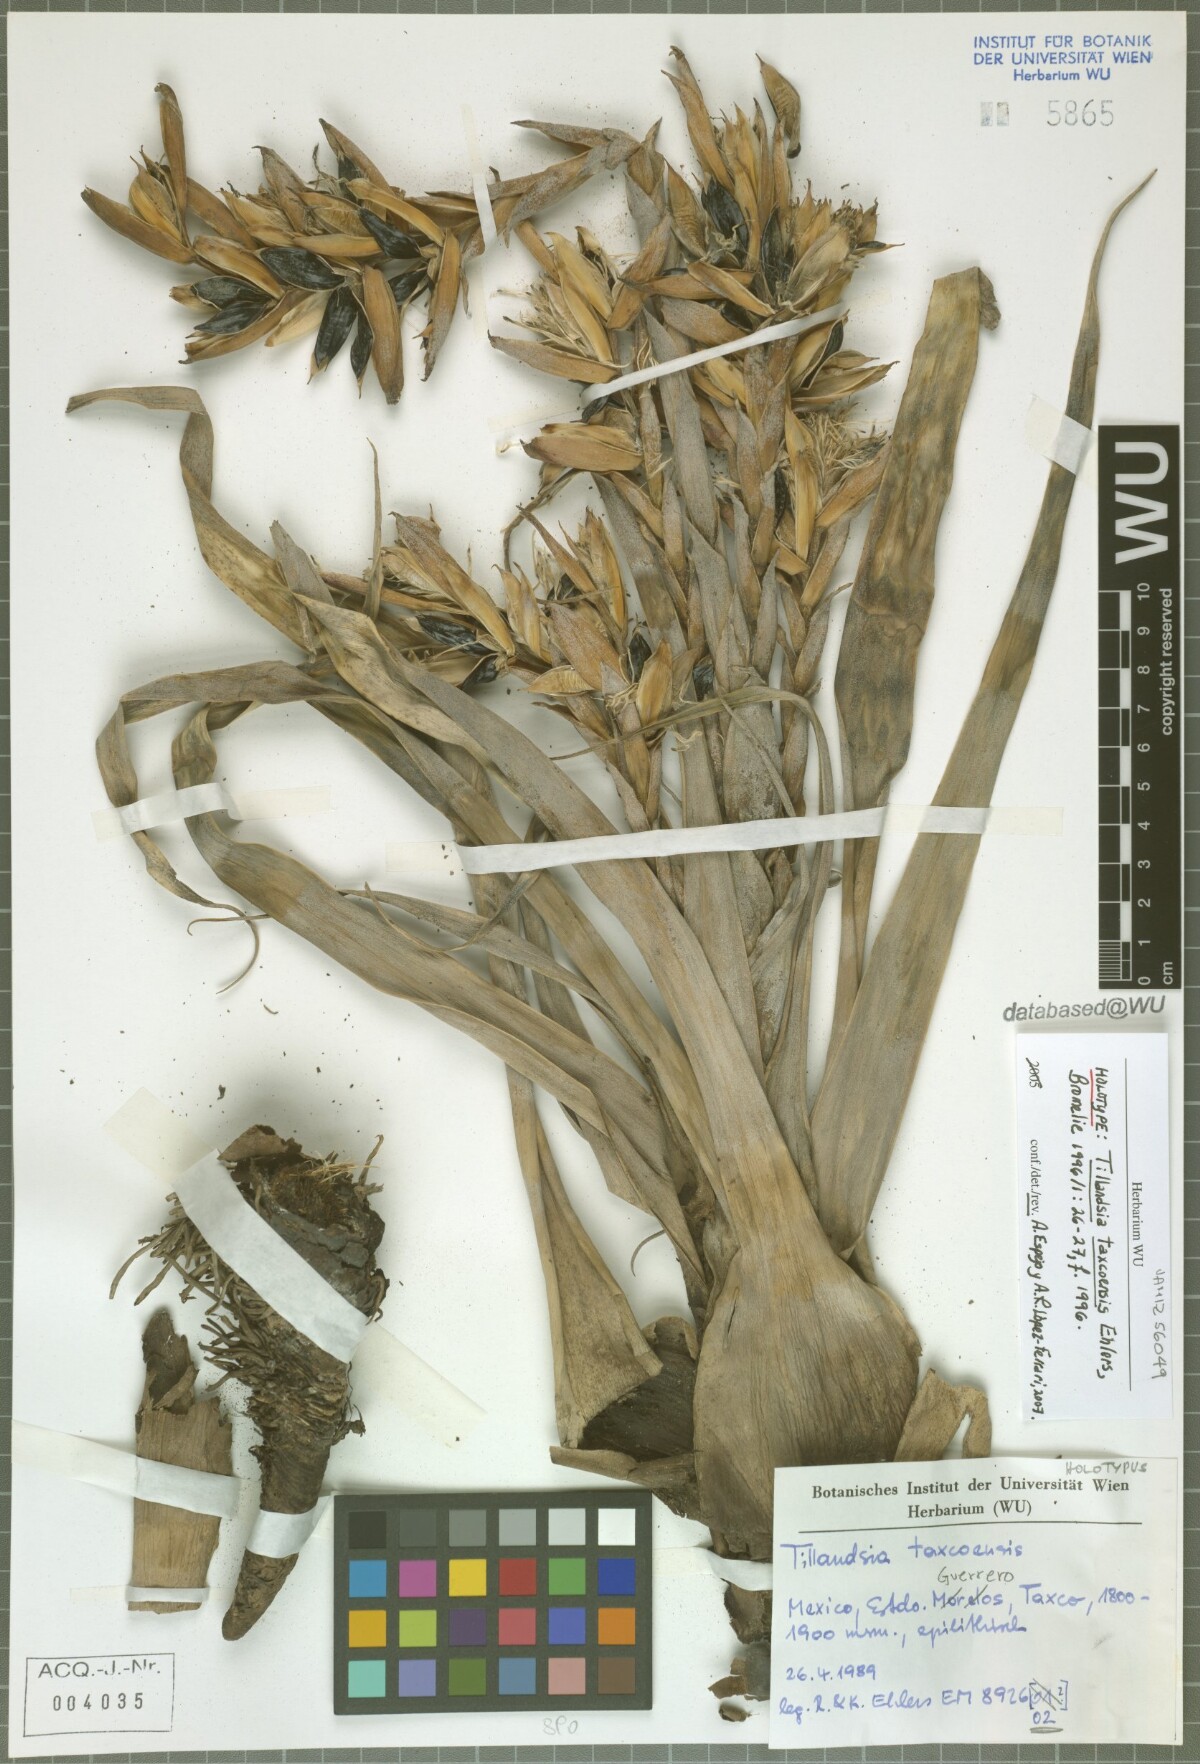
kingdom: Plantae
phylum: Tracheophyta
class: Liliopsida
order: Poales
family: Bromeliaceae
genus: Tillandsia
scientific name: Tillandsia taxcoensis
